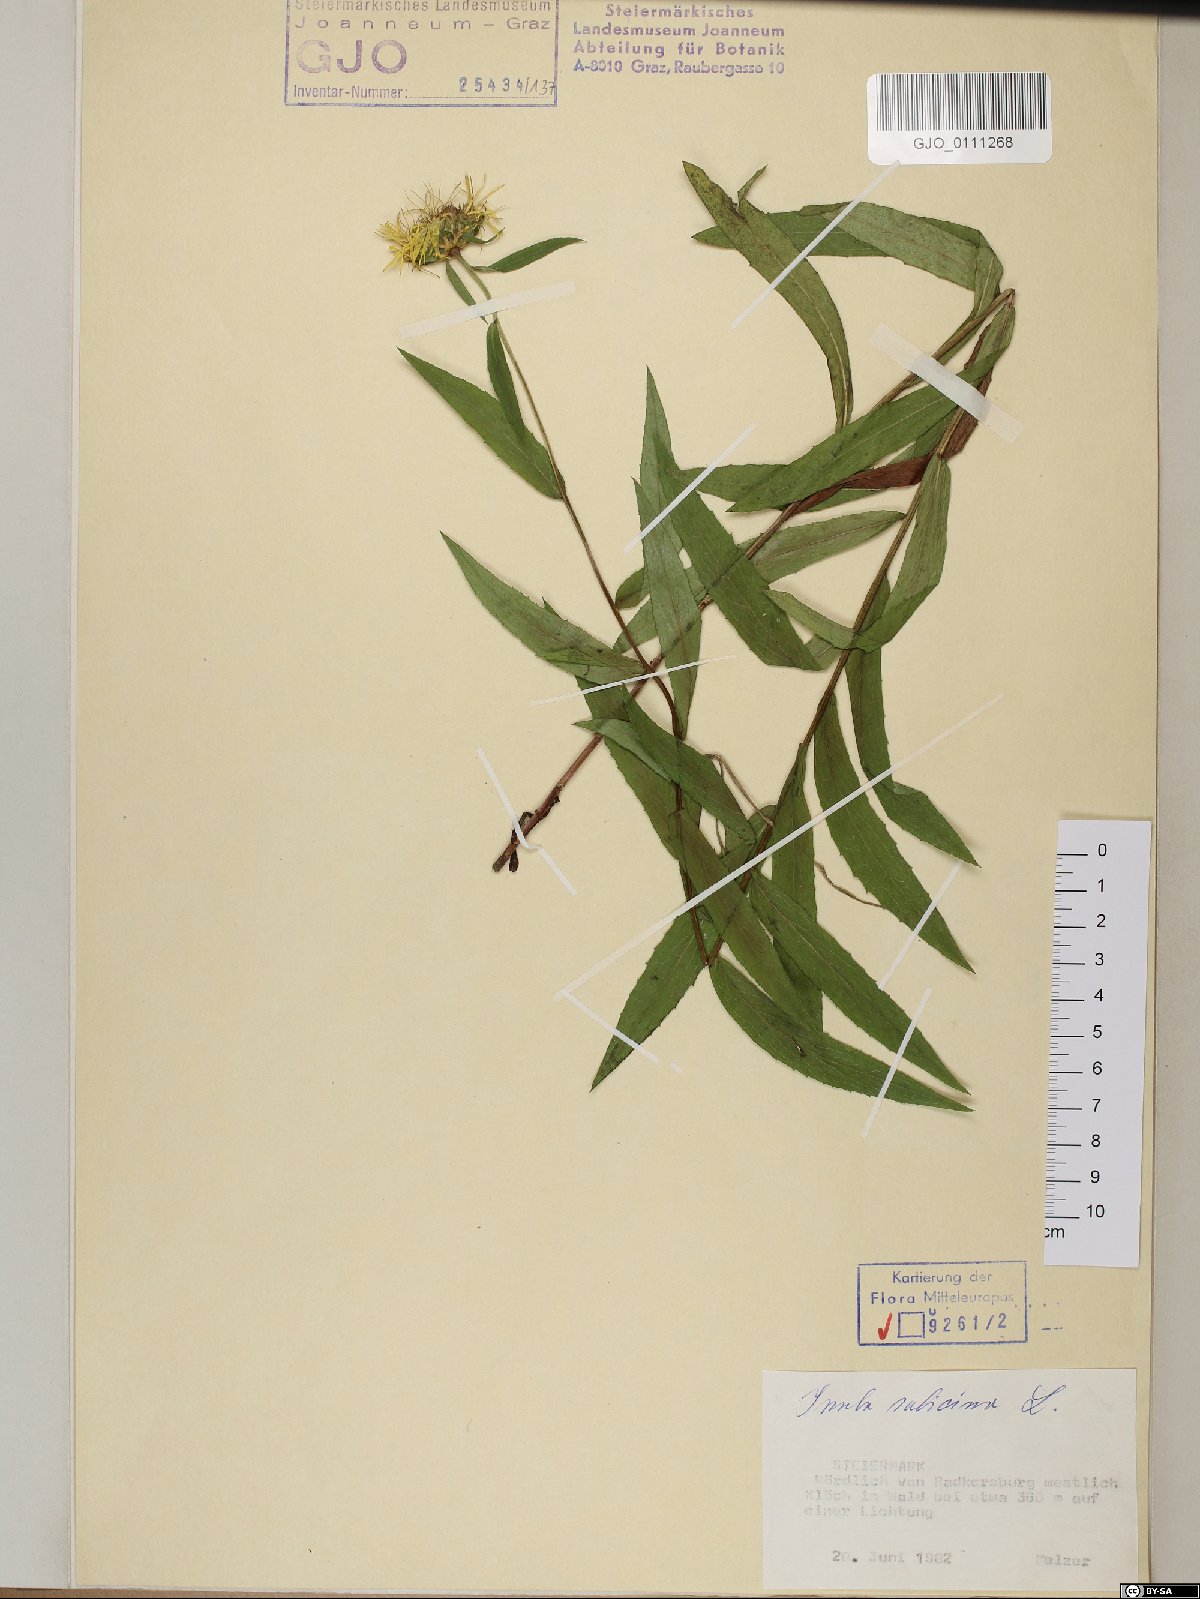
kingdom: Plantae
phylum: Tracheophyta
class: Magnoliopsida
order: Asterales
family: Asteraceae
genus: Pentanema
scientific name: Pentanema salicinum
